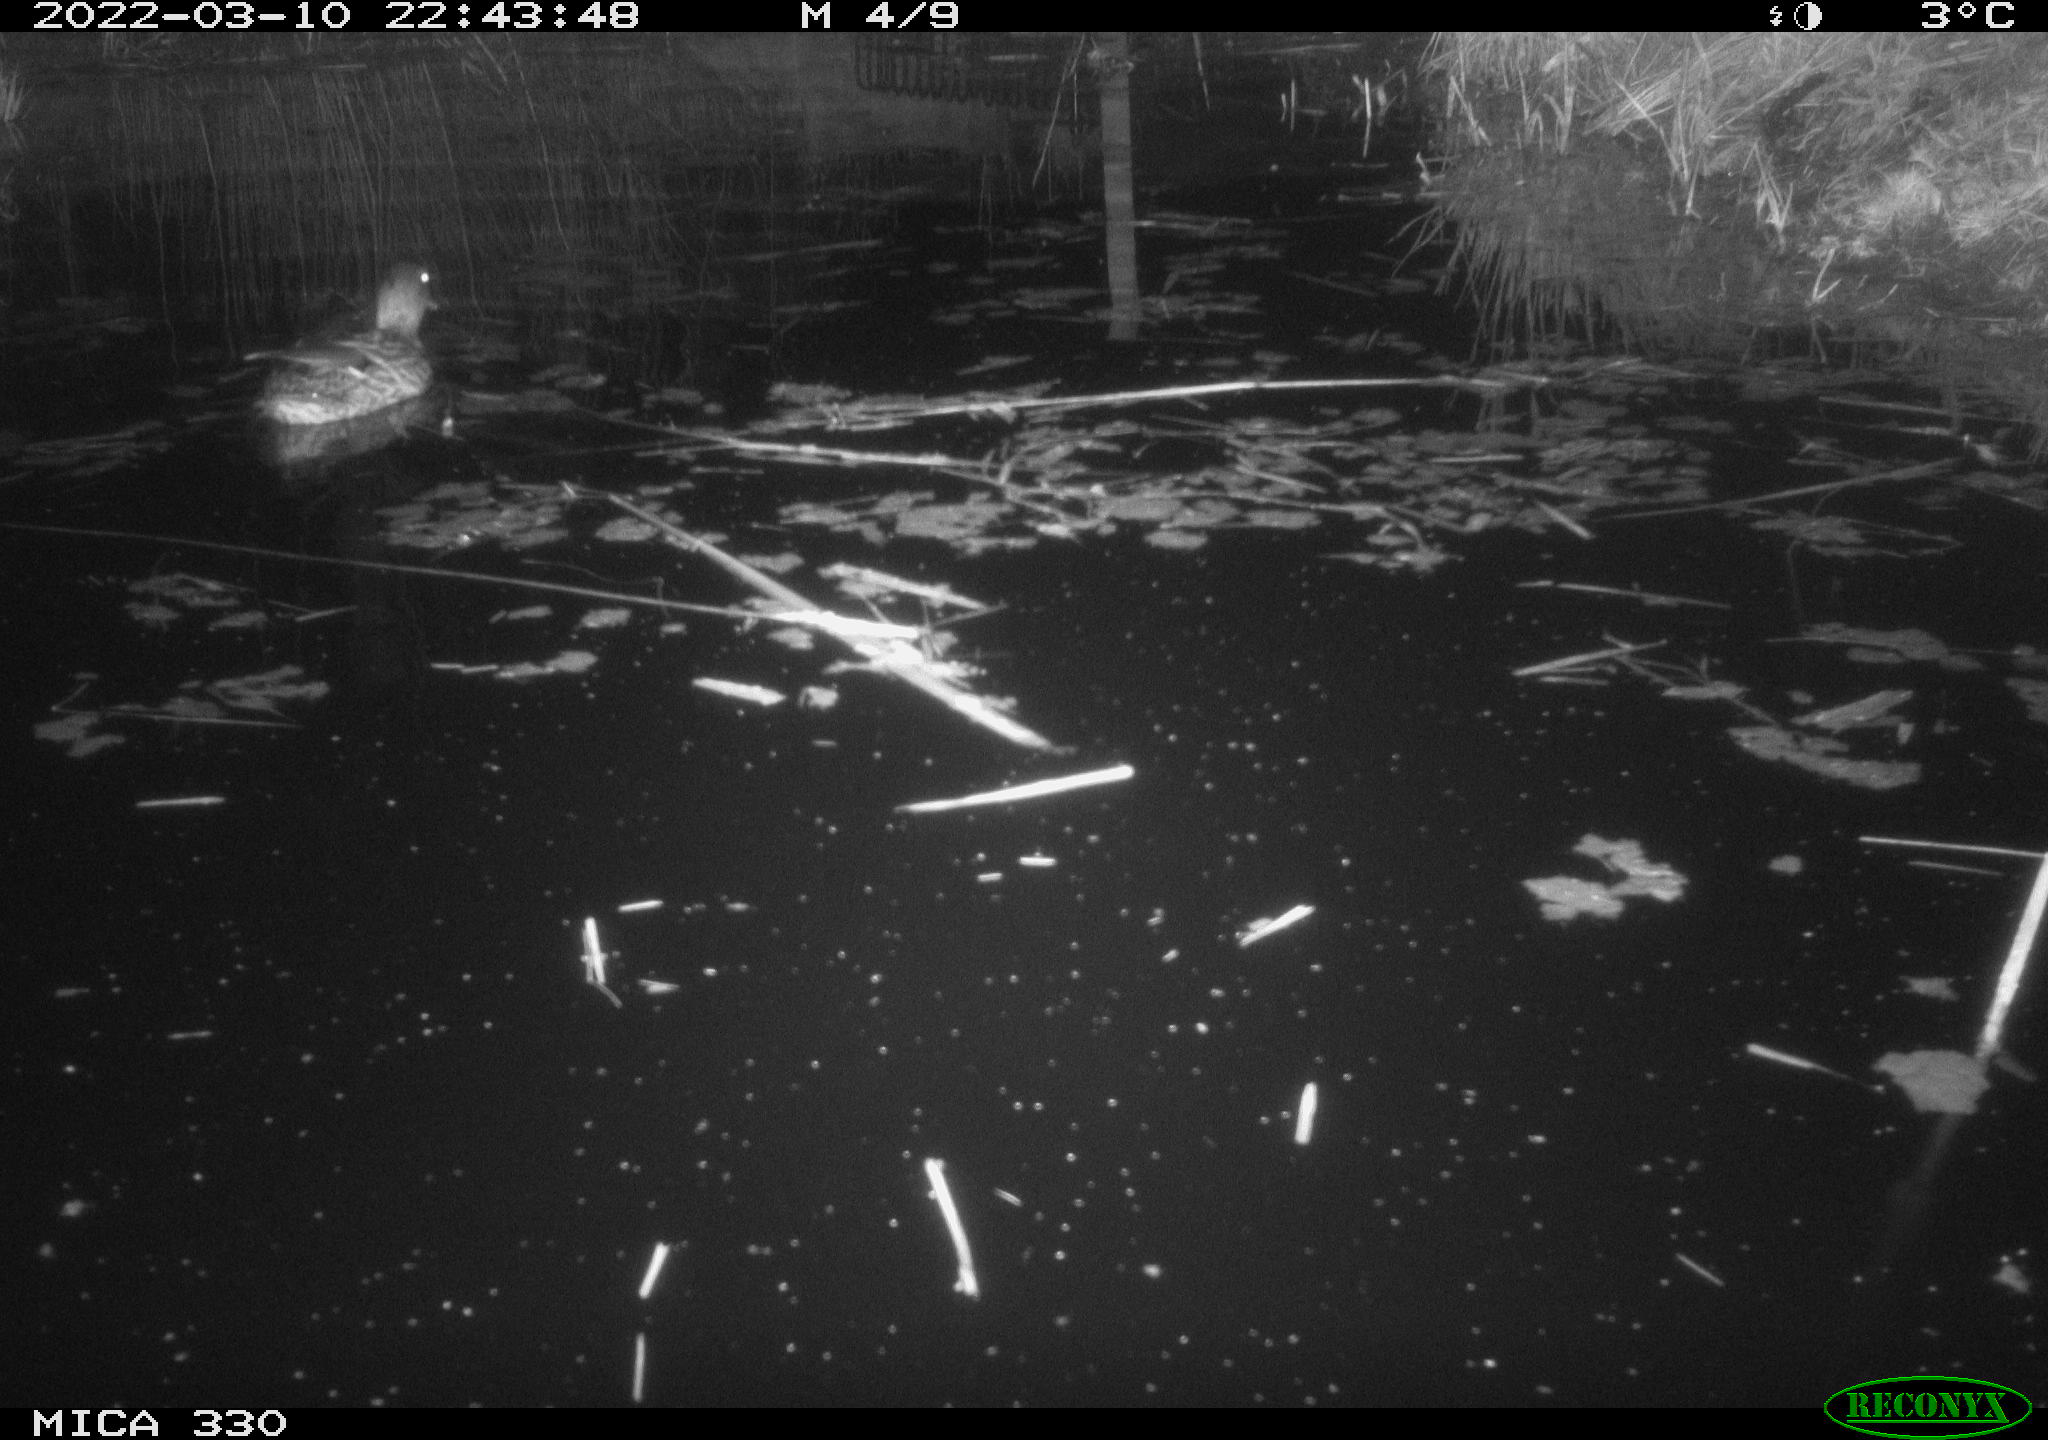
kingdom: Animalia
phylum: Chordata
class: Aves
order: Anseriformes
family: Anatidae
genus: Anas
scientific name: Anas platyrhynchos
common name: Mallard
